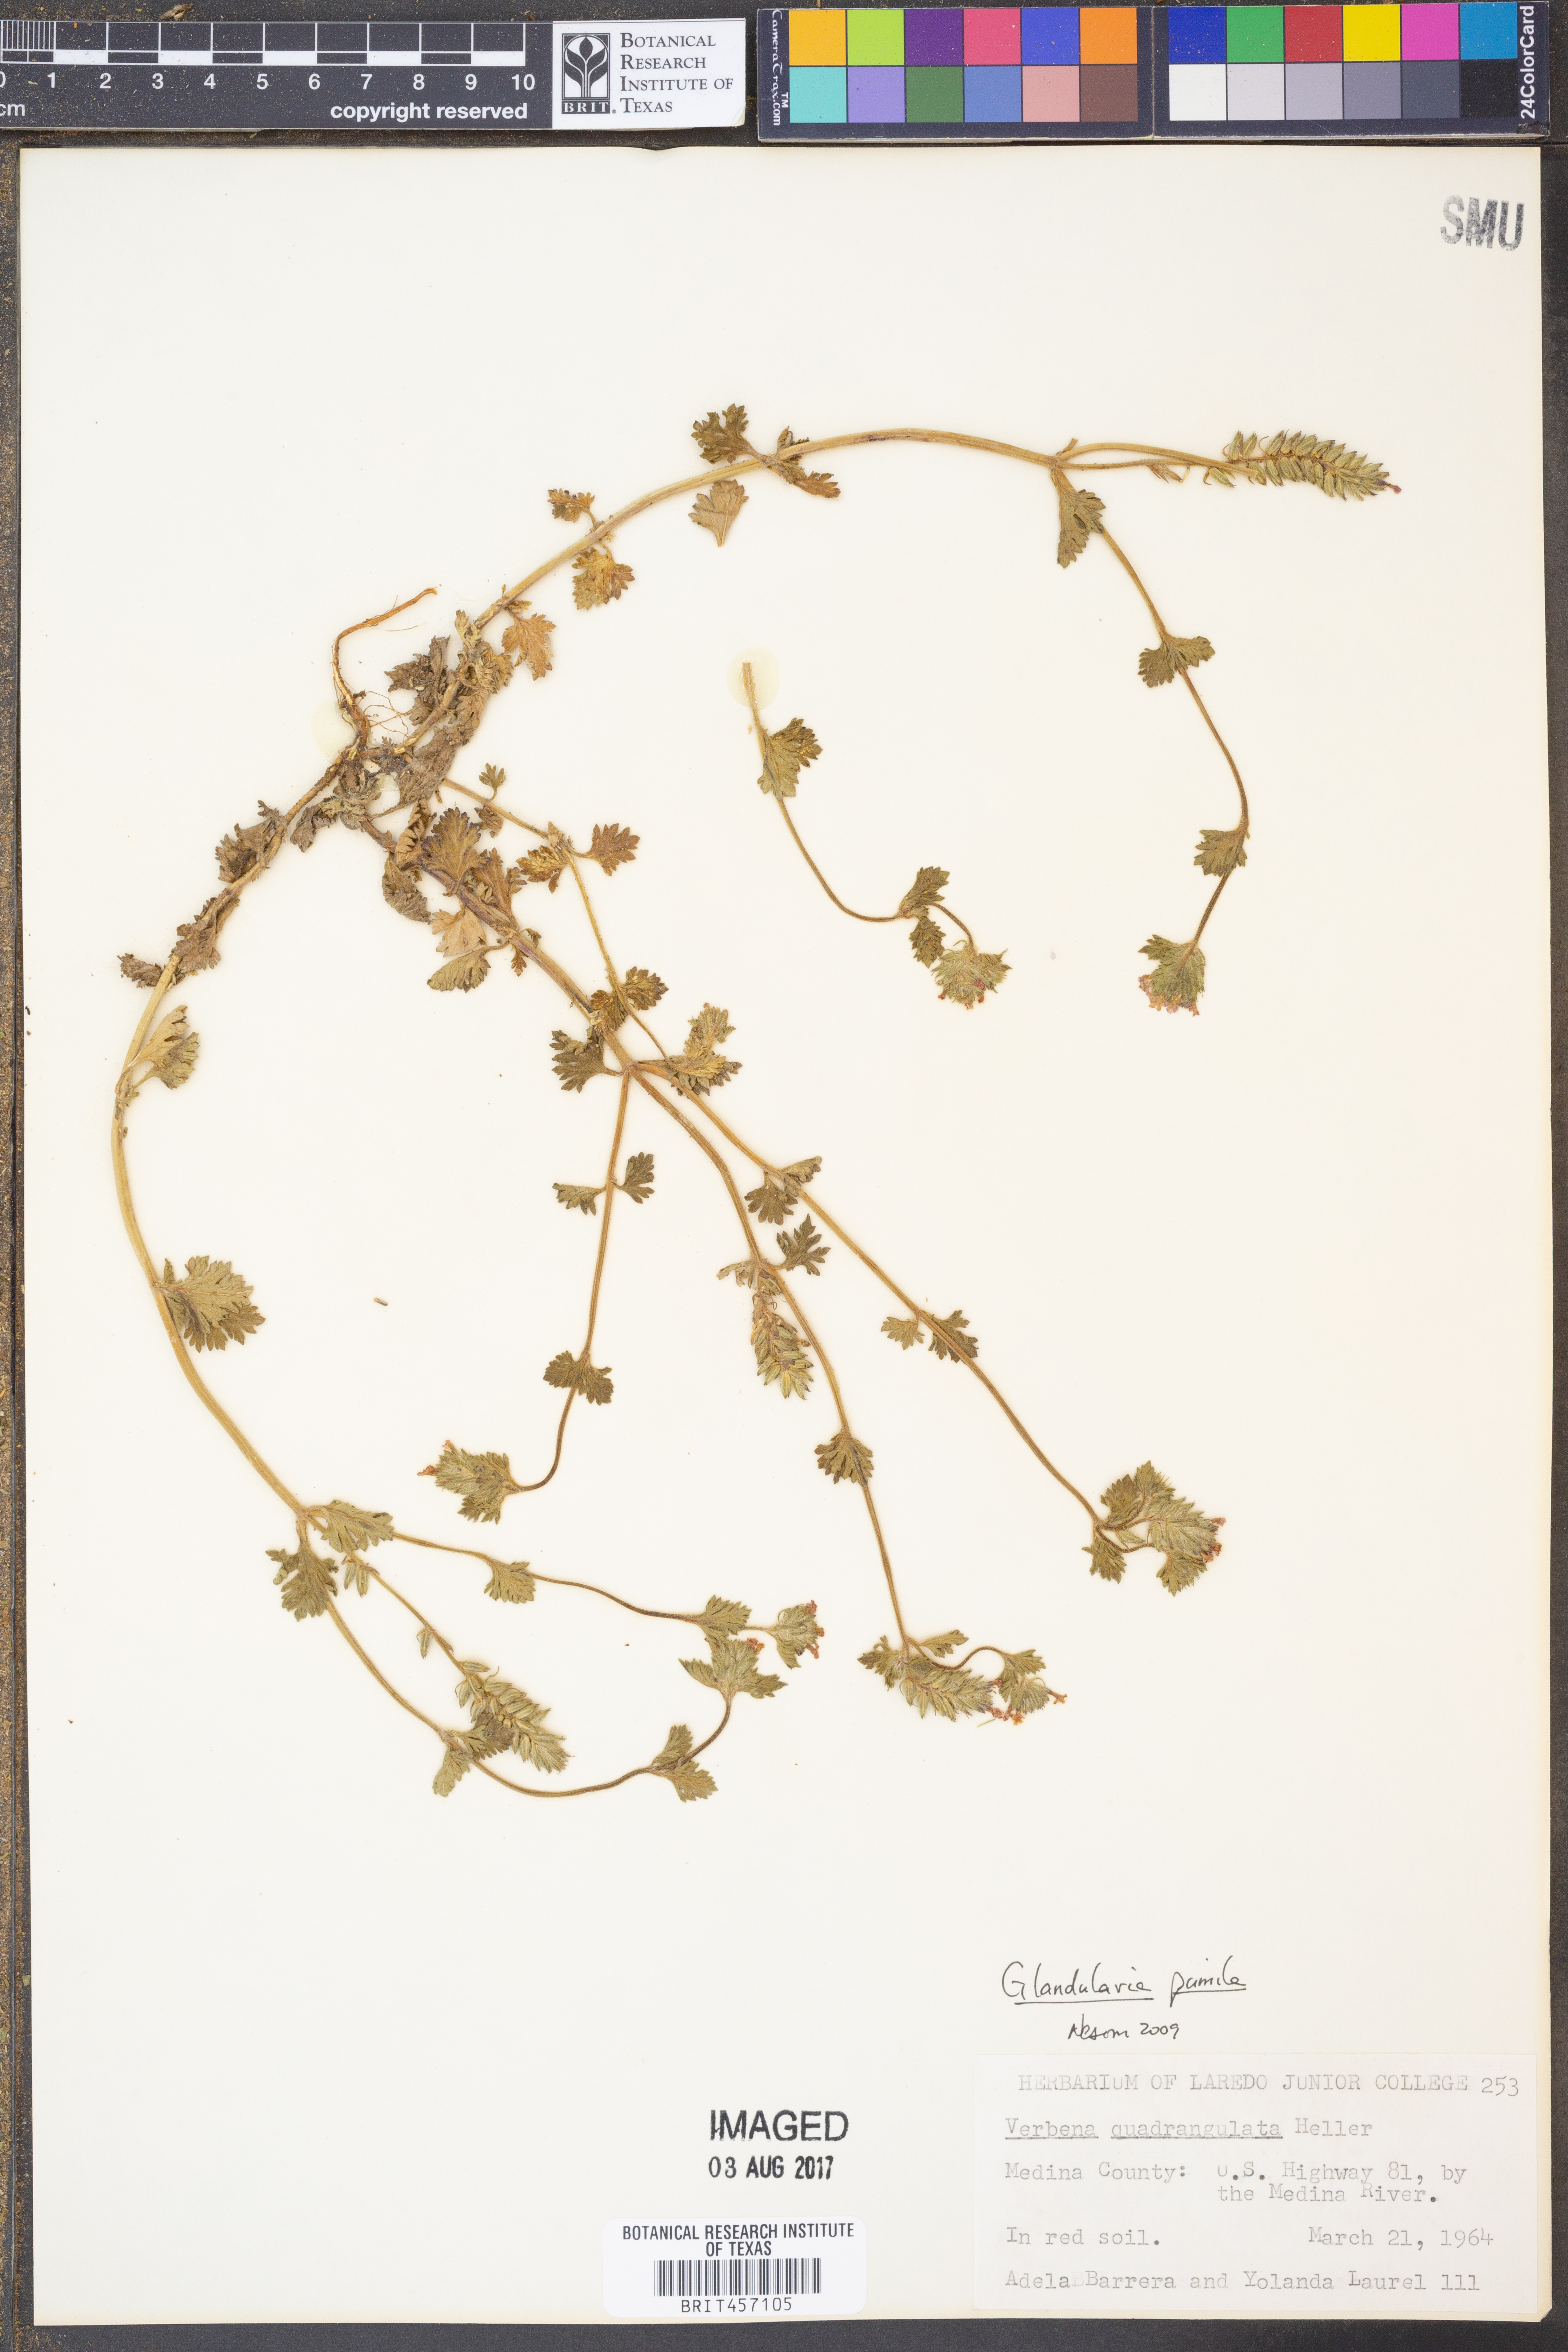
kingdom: Plantae
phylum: Tracheophyta
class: Magnoliopsida
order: Lamiales
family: Verbenaceae
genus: Verbena
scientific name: Verbena pumila
